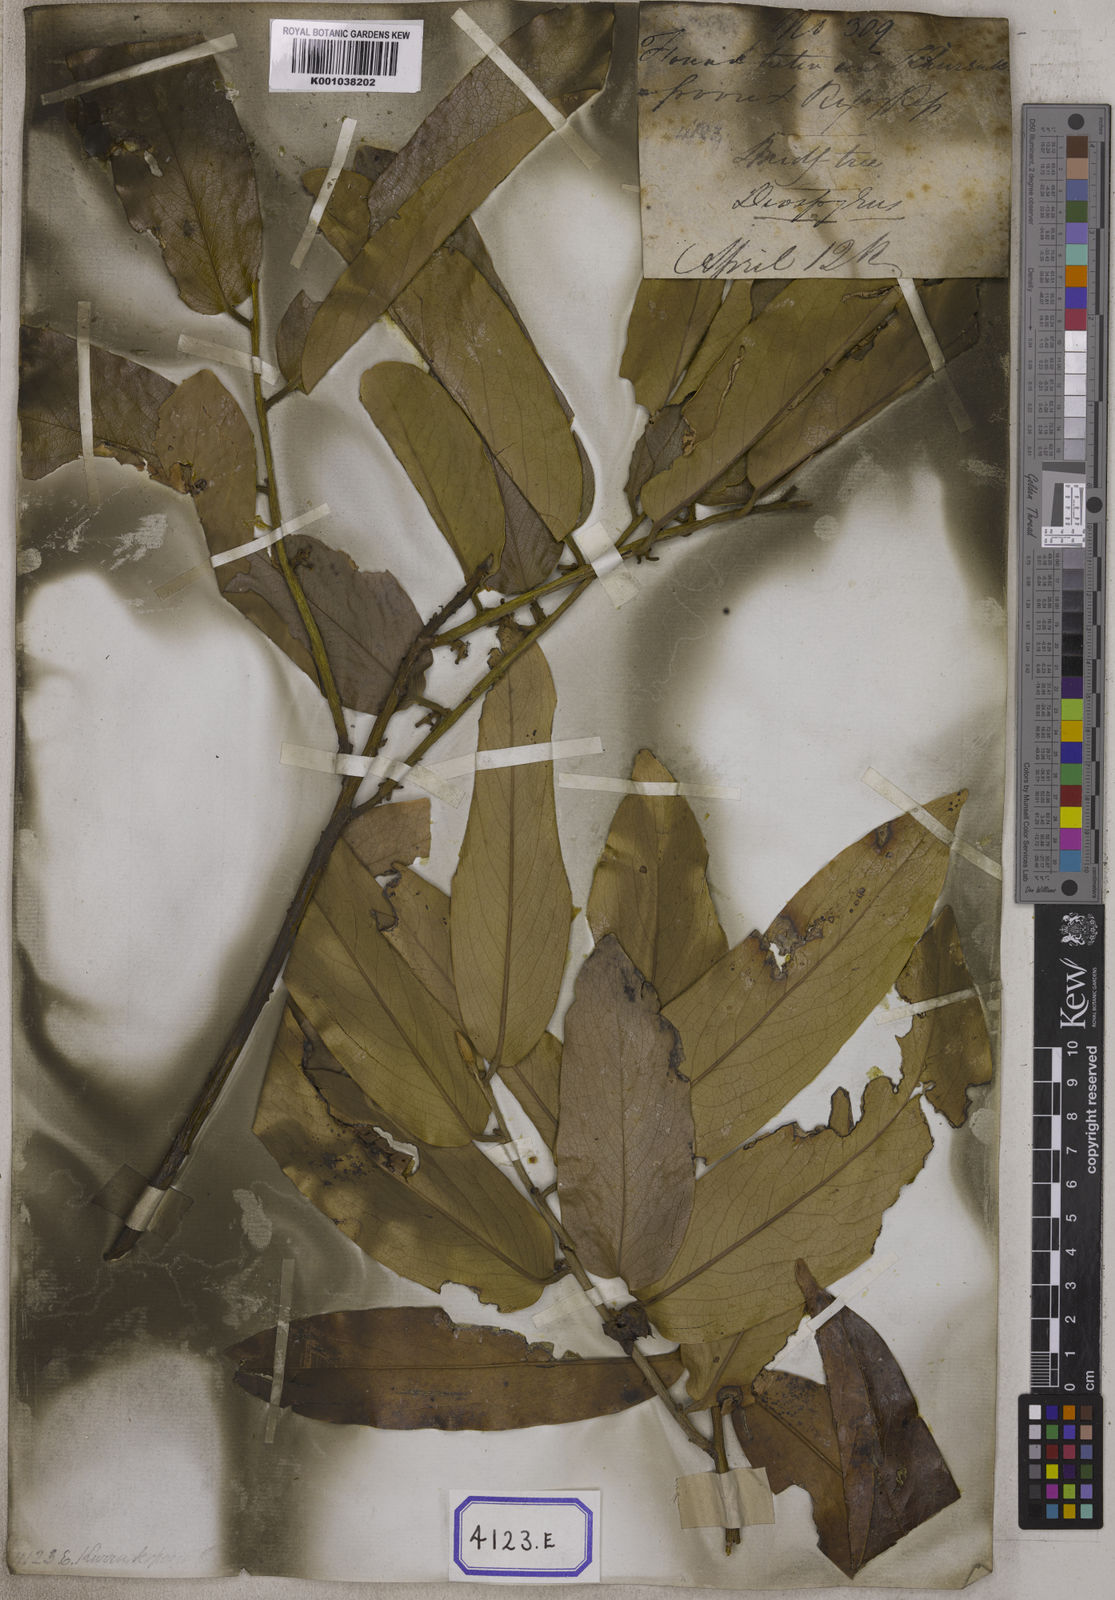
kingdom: Plantae
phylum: Tracheophyta
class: Magnoliopsida
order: Ericales
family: Ebenaceae
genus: Diospyros
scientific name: Diospyros malabarica
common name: Mountain ebony
